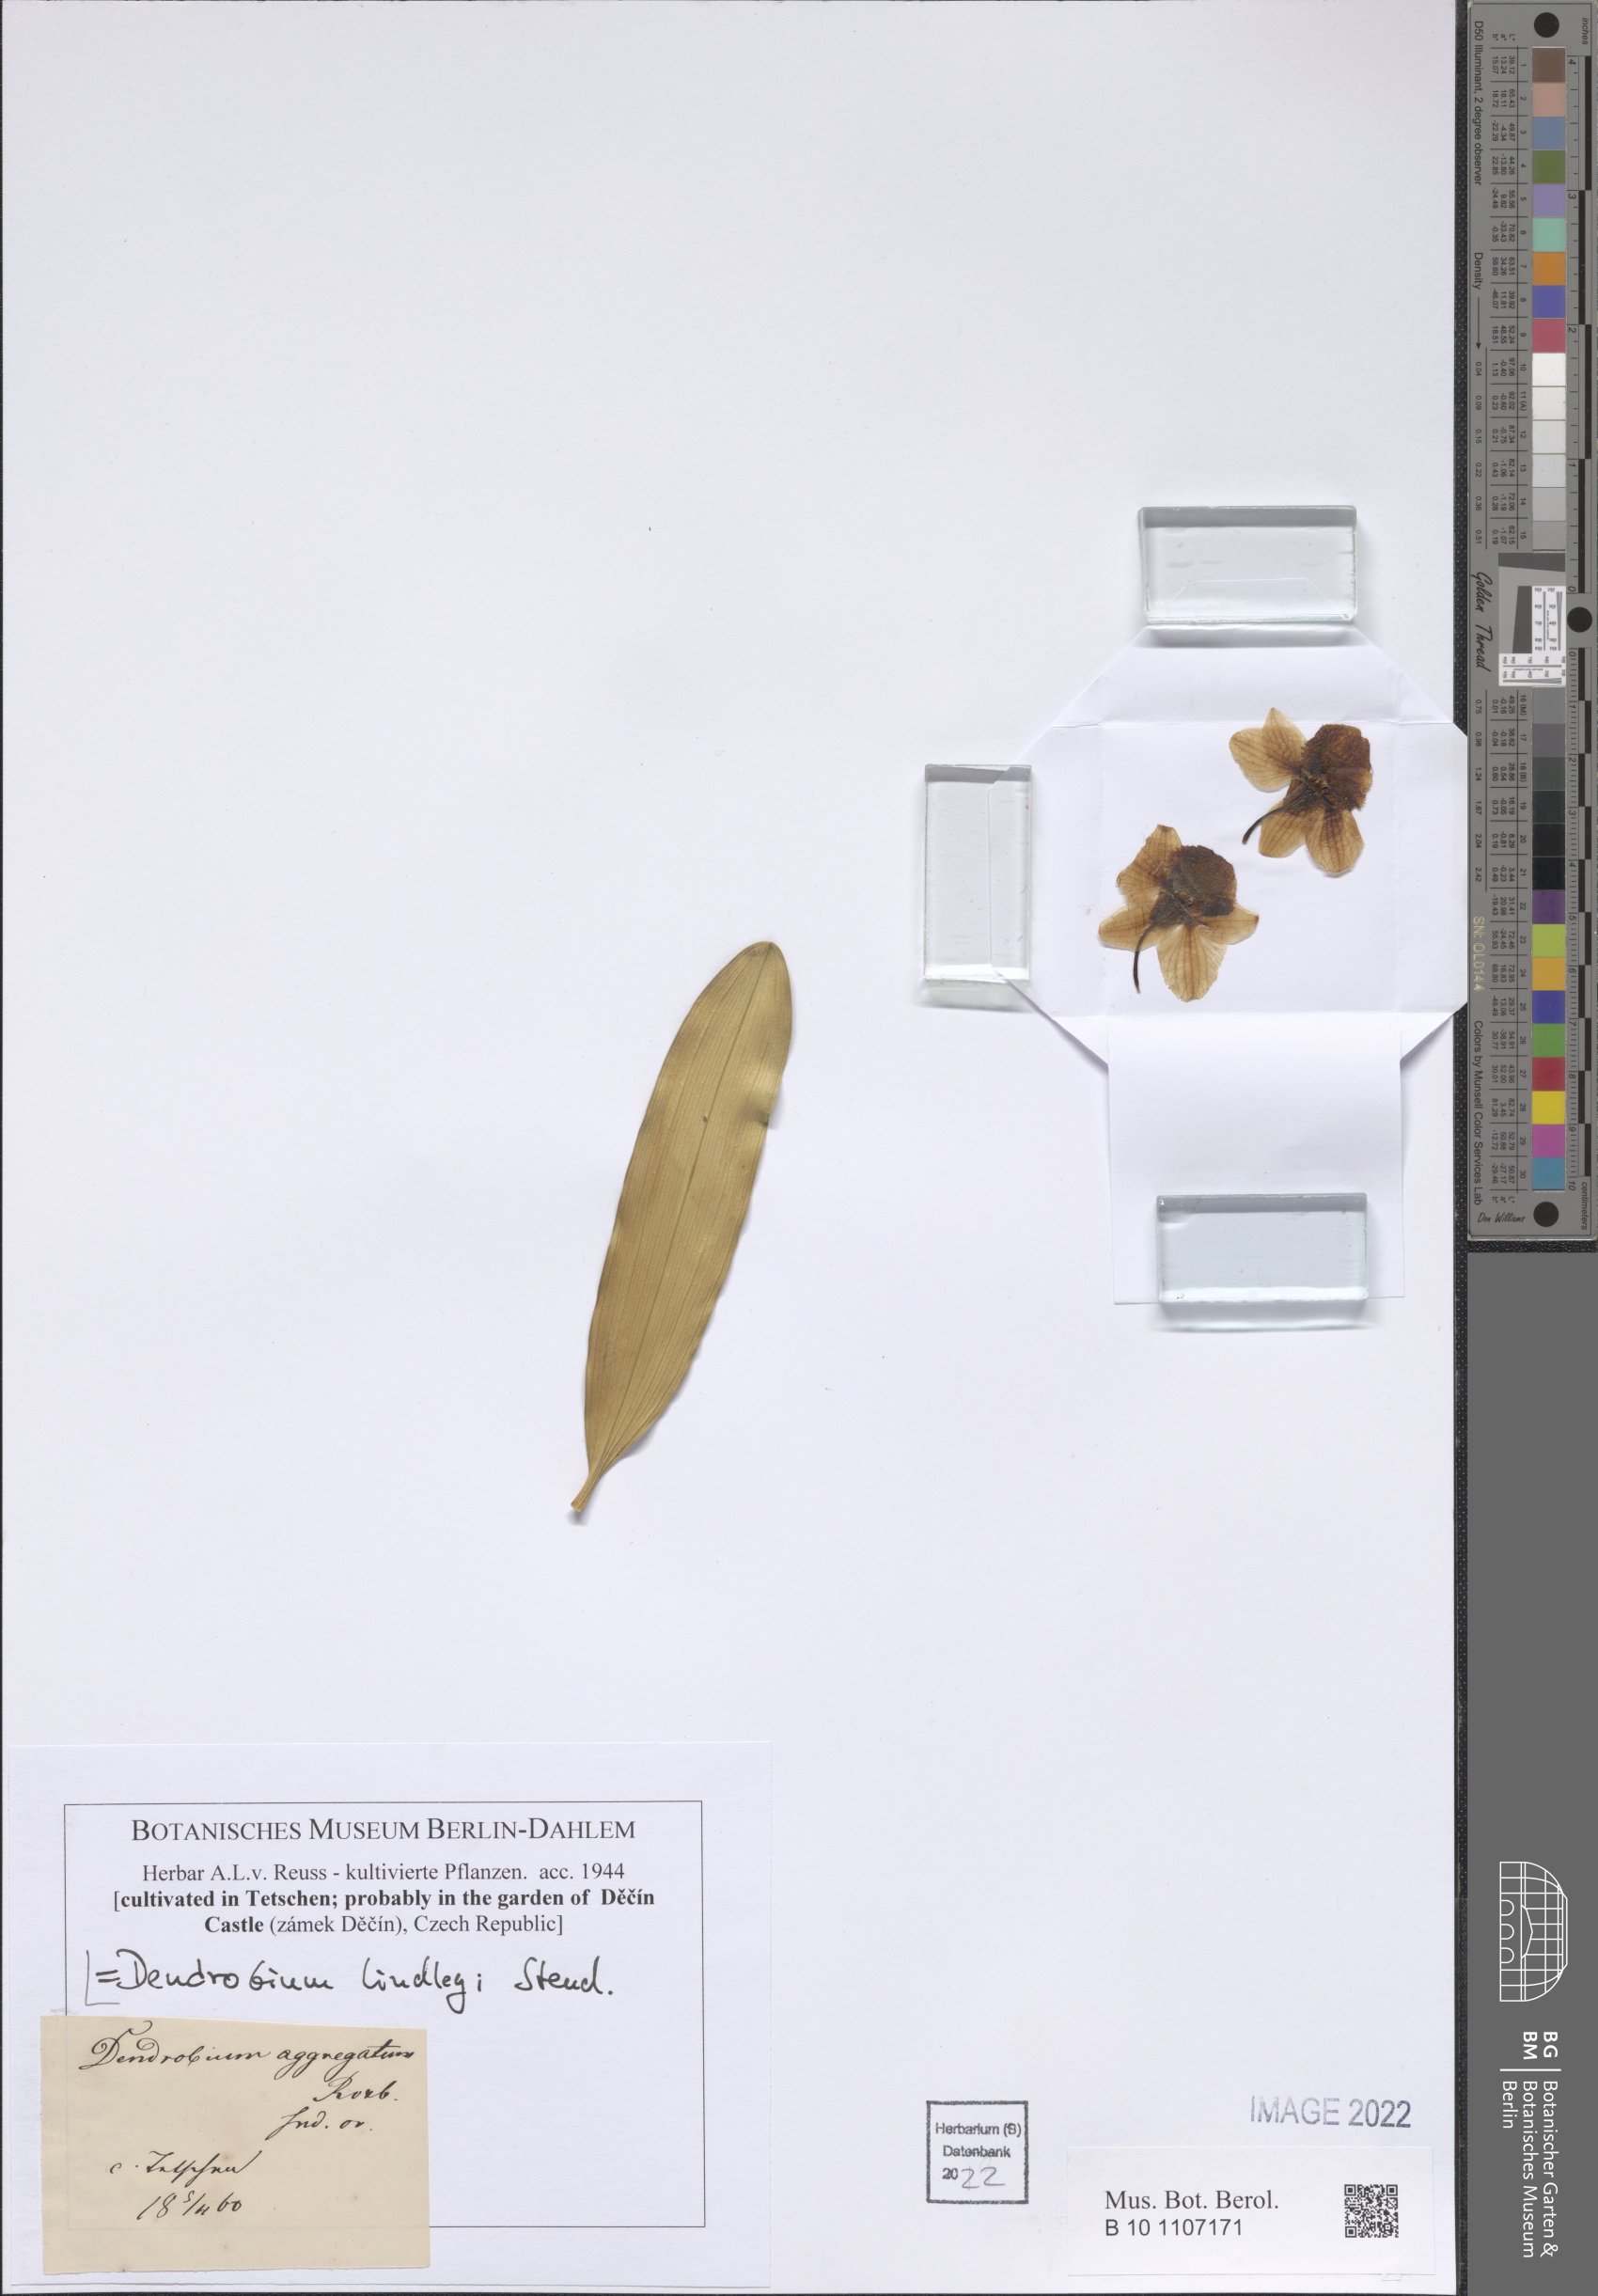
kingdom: Plantae
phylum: Tracheophyta
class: Liliopsida
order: Asparagales
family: Orchidaceae
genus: Dendrobium
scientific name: Dendrobium lindleyi
